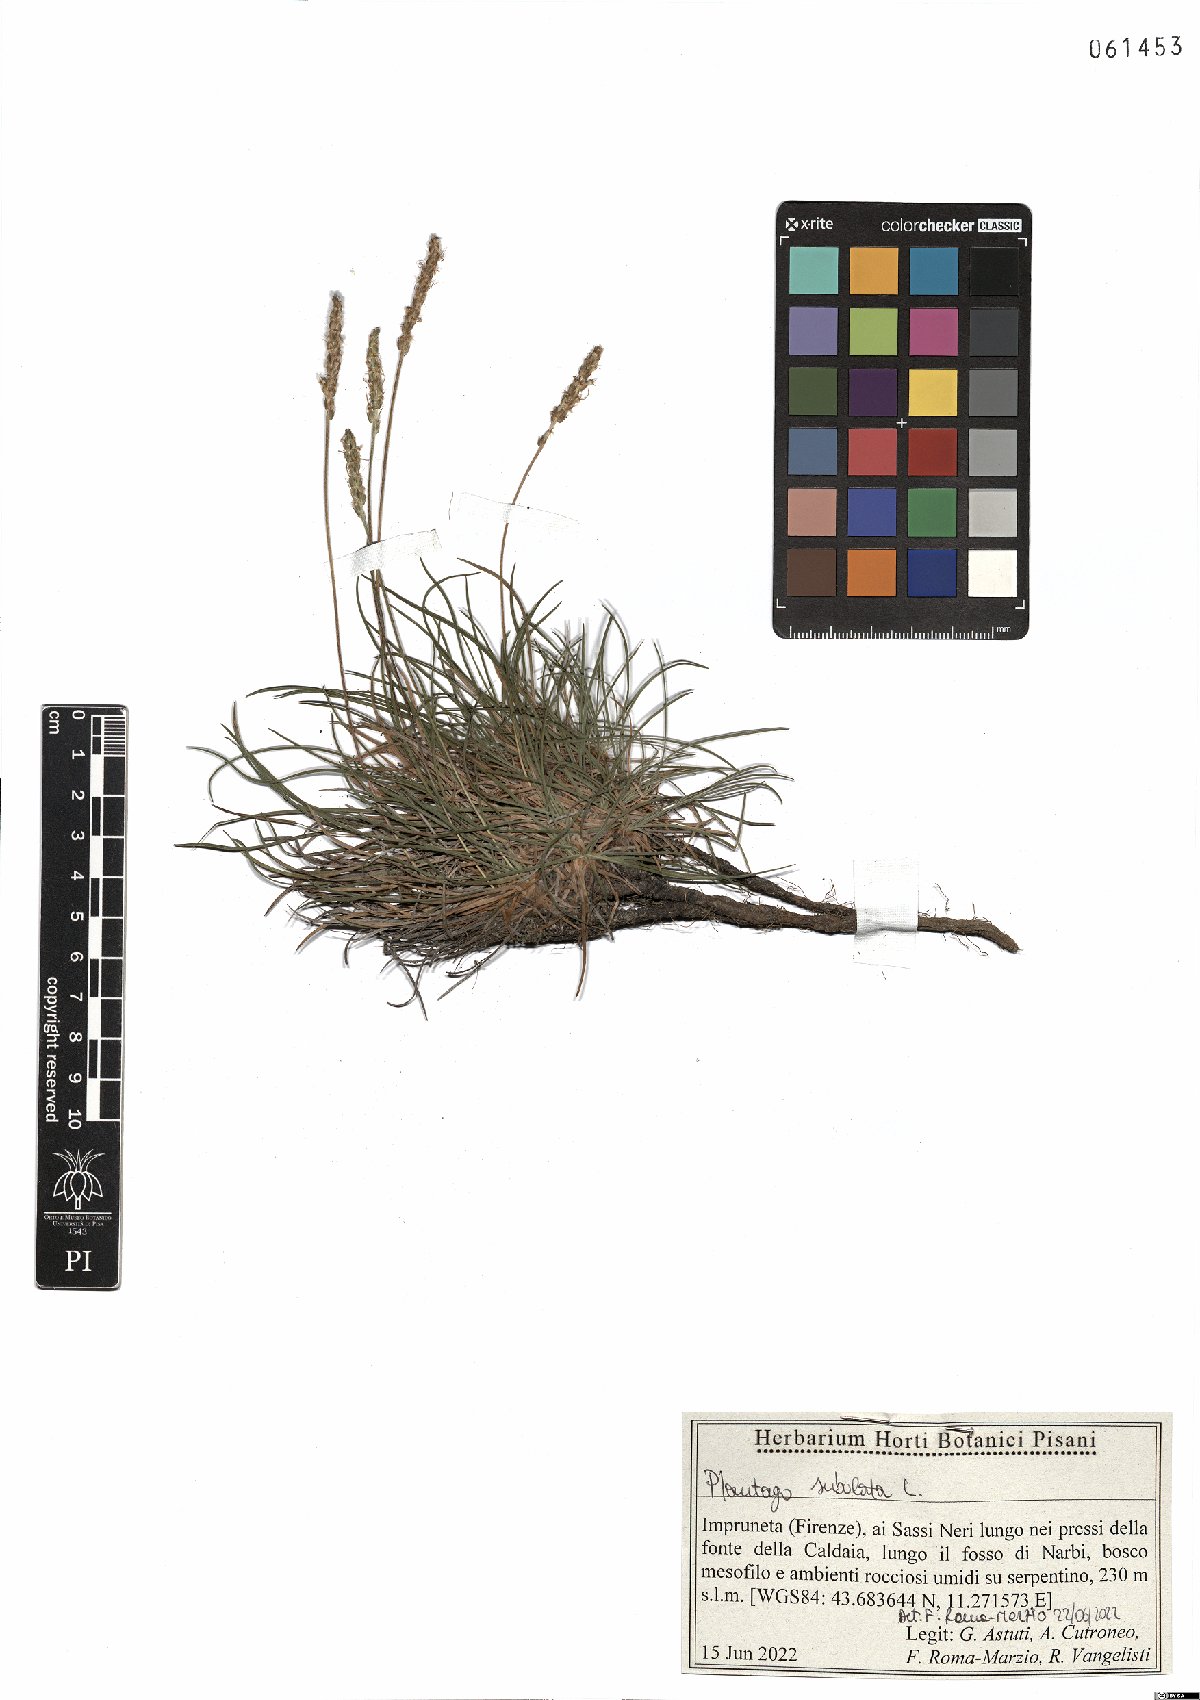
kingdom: Plantae
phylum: Tracheophyta
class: Magnoliopsida
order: Lamiales
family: Plantaginaceae
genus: Plantago
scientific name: Plantago subulata
